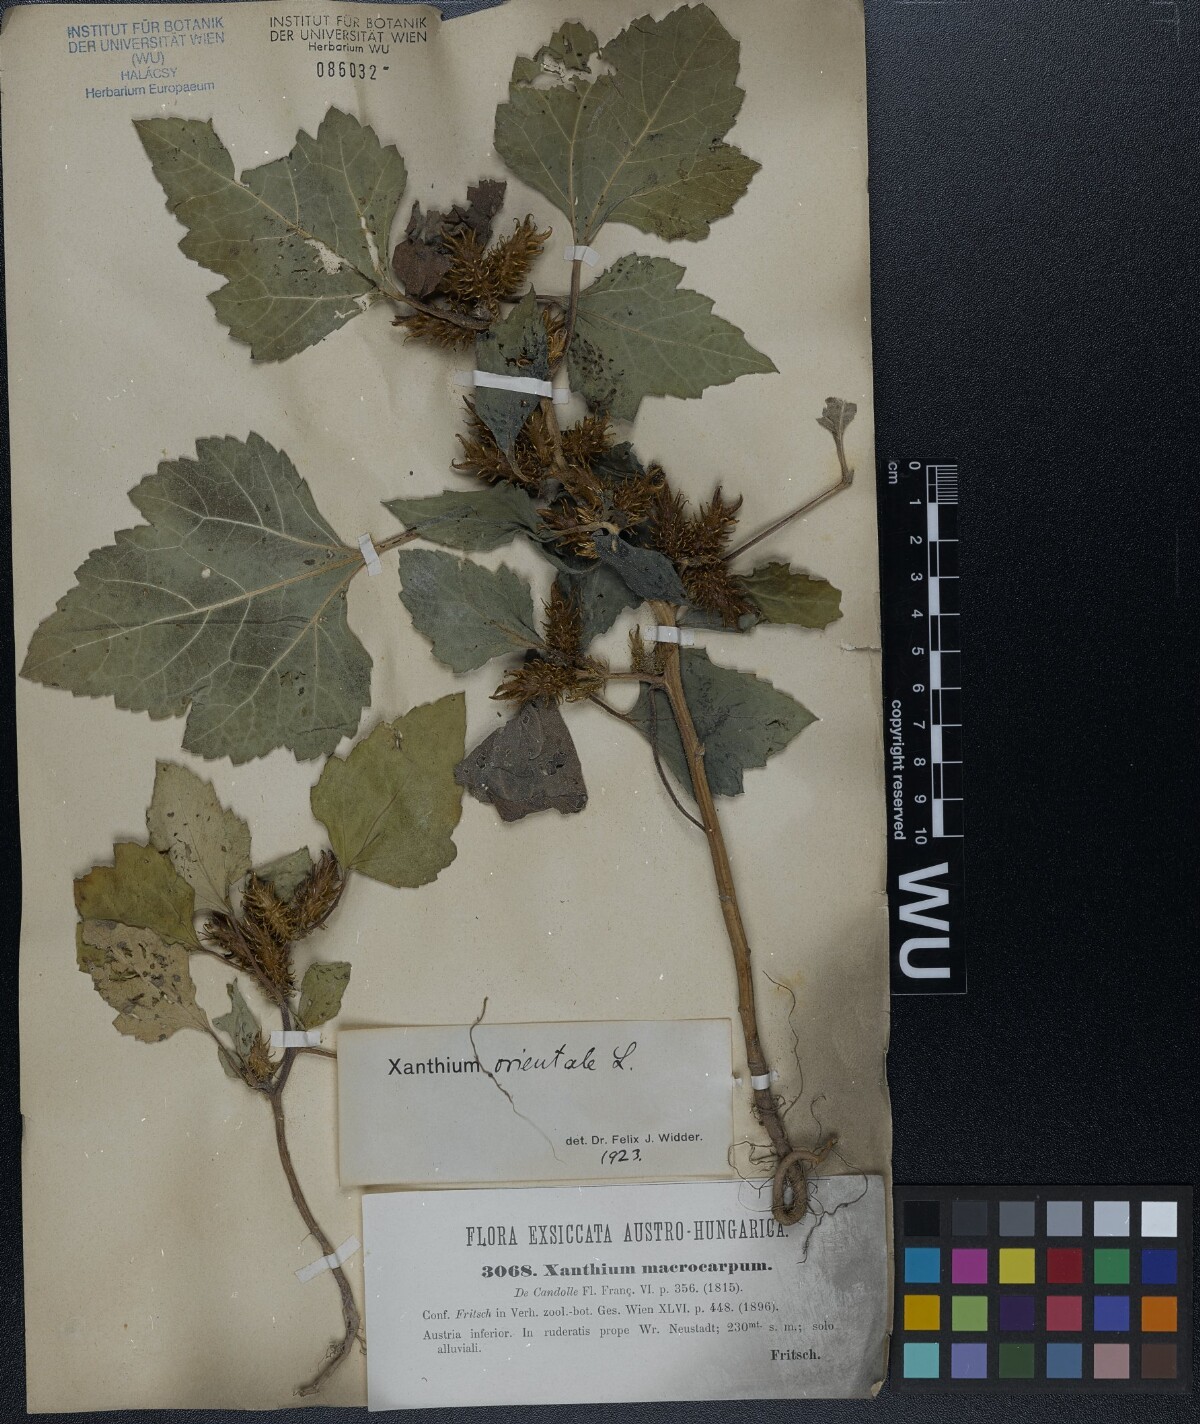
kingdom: Plantae
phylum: Tracheophyta
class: Magnoliopsida
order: Asterales
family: Asteraceae
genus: Xanthium
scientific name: Xanthium orientale
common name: Californian burr
